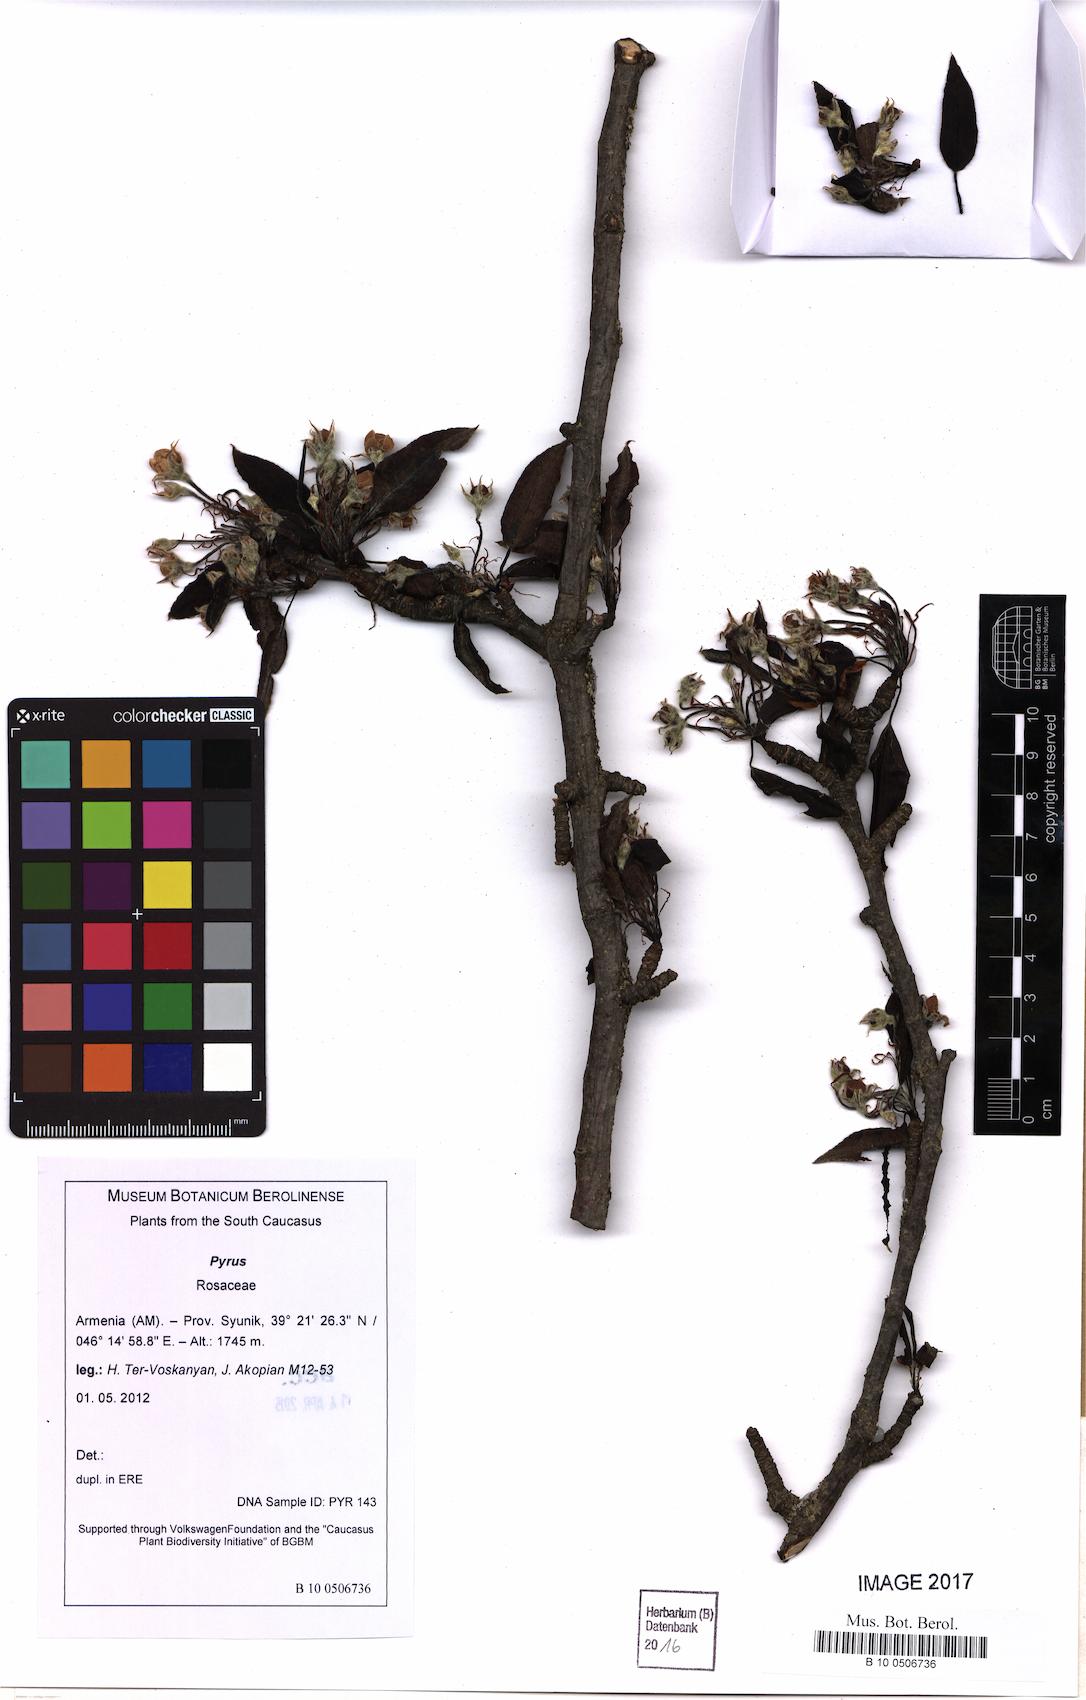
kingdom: Plantae
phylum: Tracheophyta
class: Magnoliopsida
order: Rosales
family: Rosaceae
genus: Pyrus
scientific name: Pyrus
